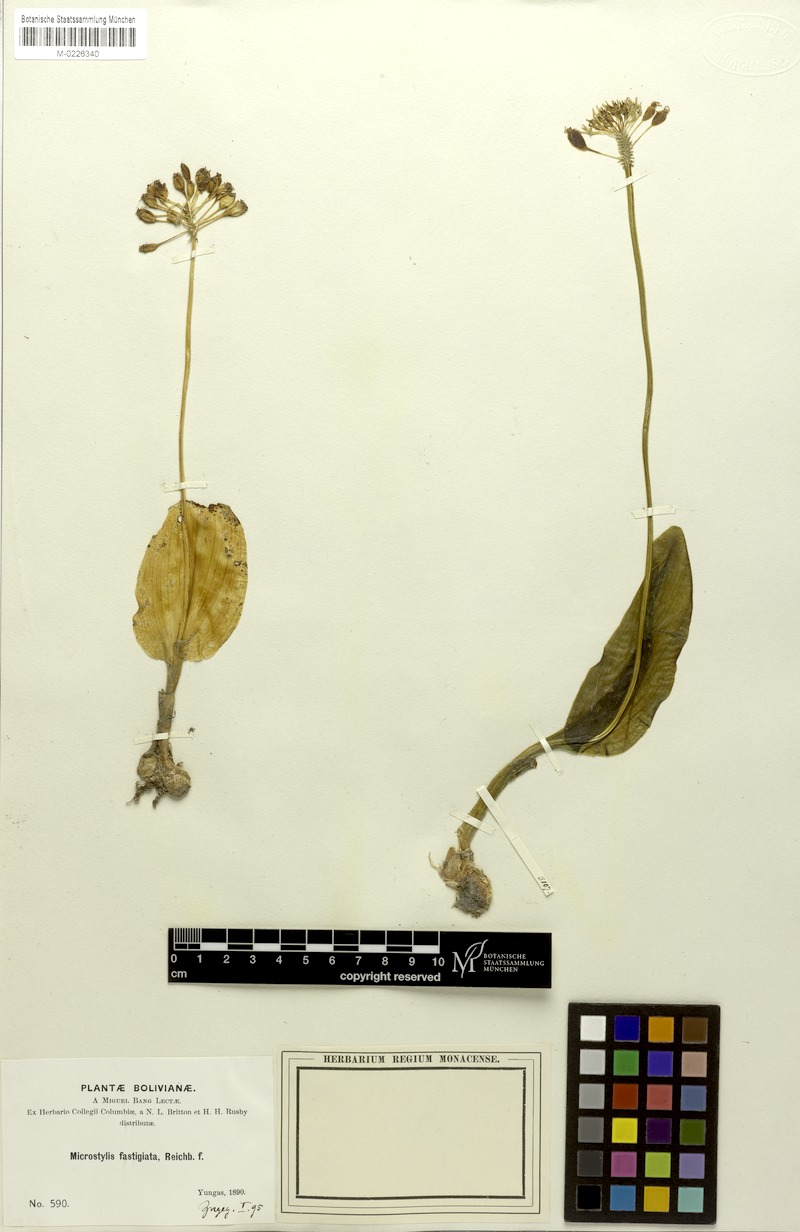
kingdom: Plantae
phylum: Tracheophyta
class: Liliopsida
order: Asparagales
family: Orchidaceae
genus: Malaxis
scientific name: Malaxis fastigiata
